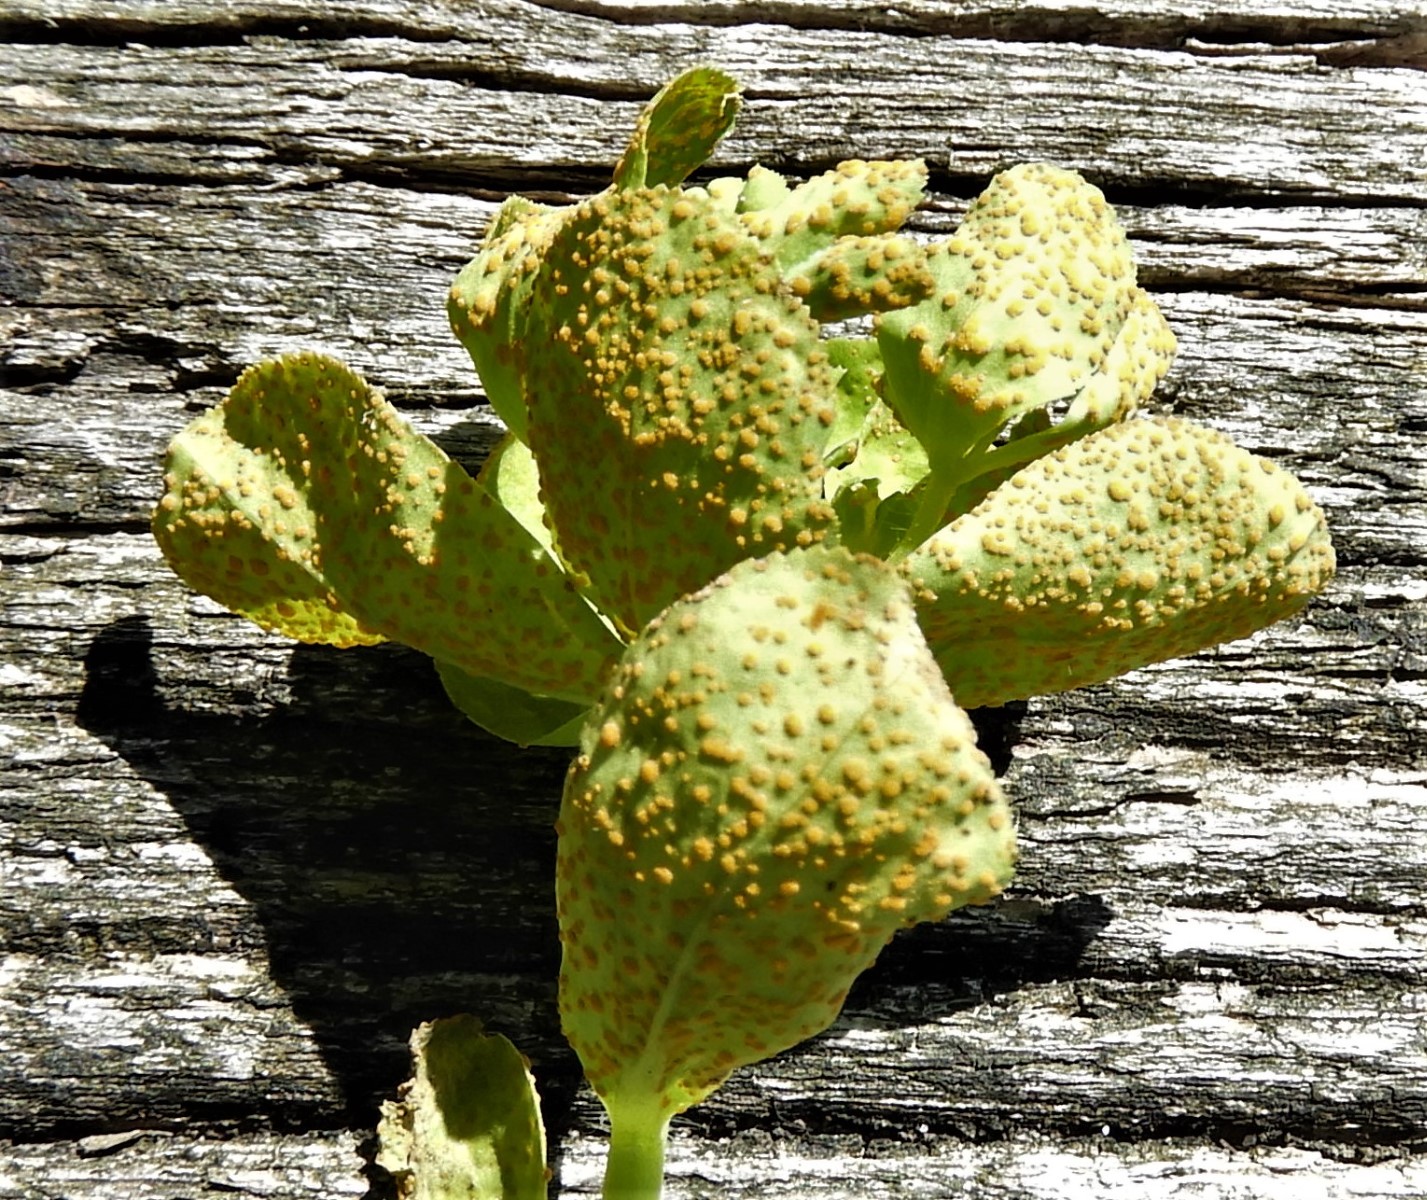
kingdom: Fungi
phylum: Basidiomycota
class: Pucciniomycetes
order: Pucciniales
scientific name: Pucciniales
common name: rustsvampeordenen
